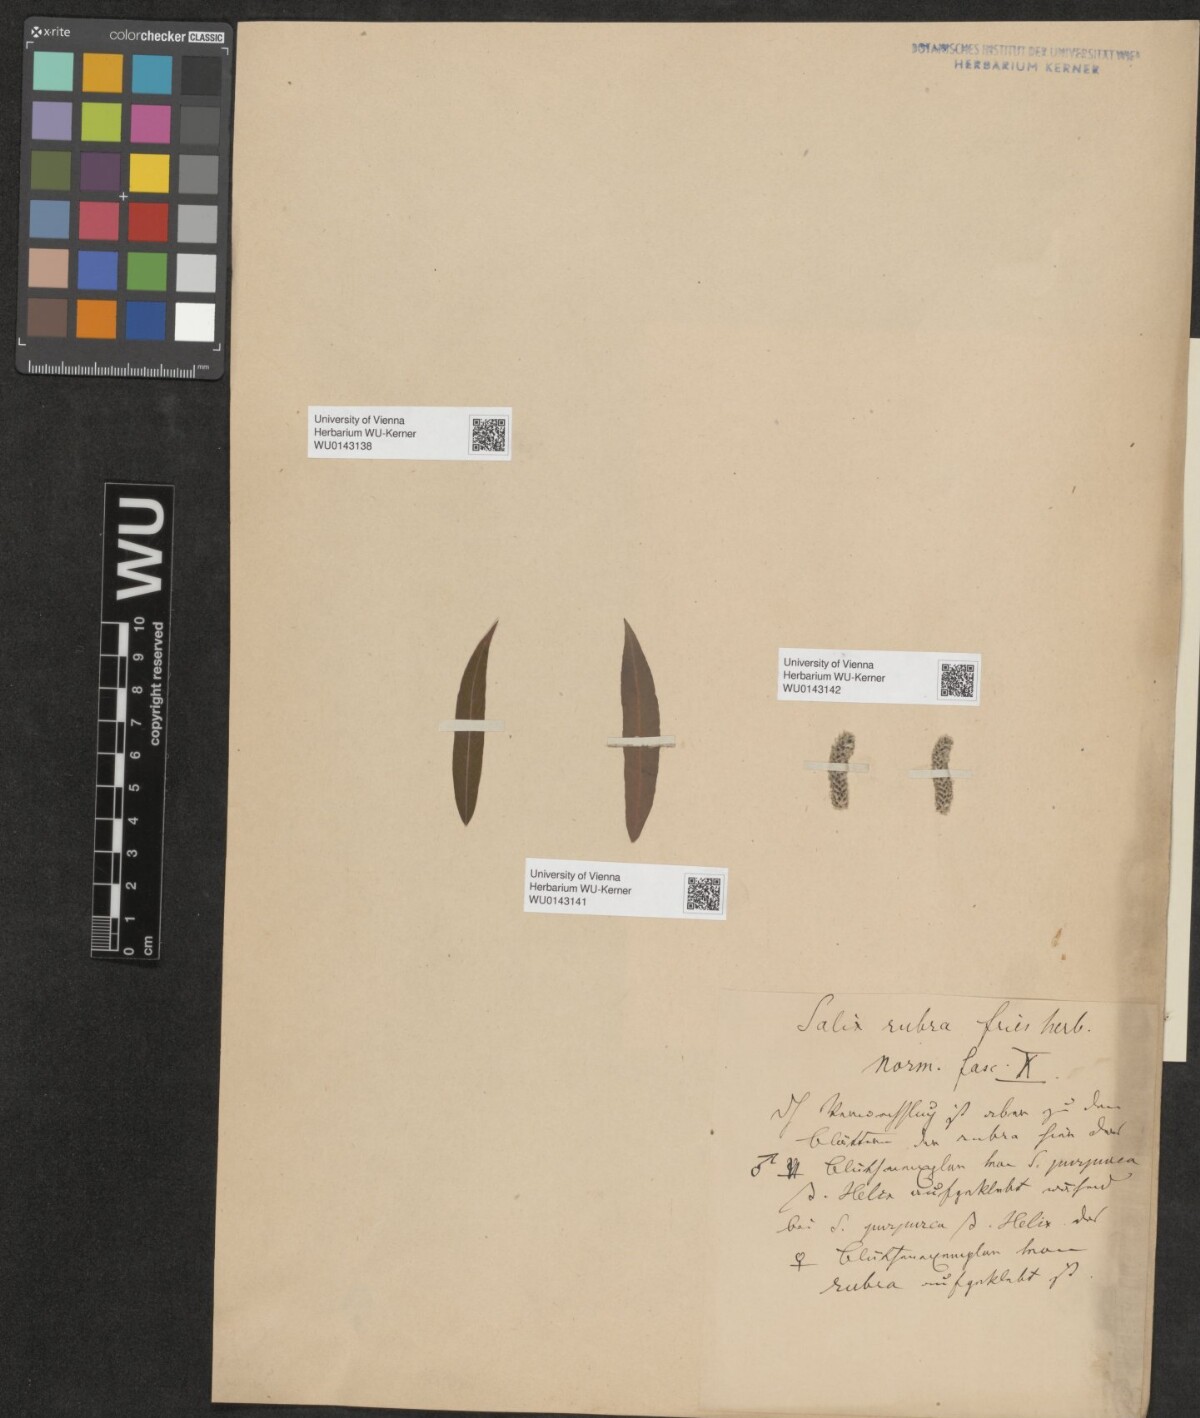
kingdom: Plantae
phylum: Tracheophyta
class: Magnoliopsida
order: Malpighiales
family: Salicaceae
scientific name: Salicaceae
